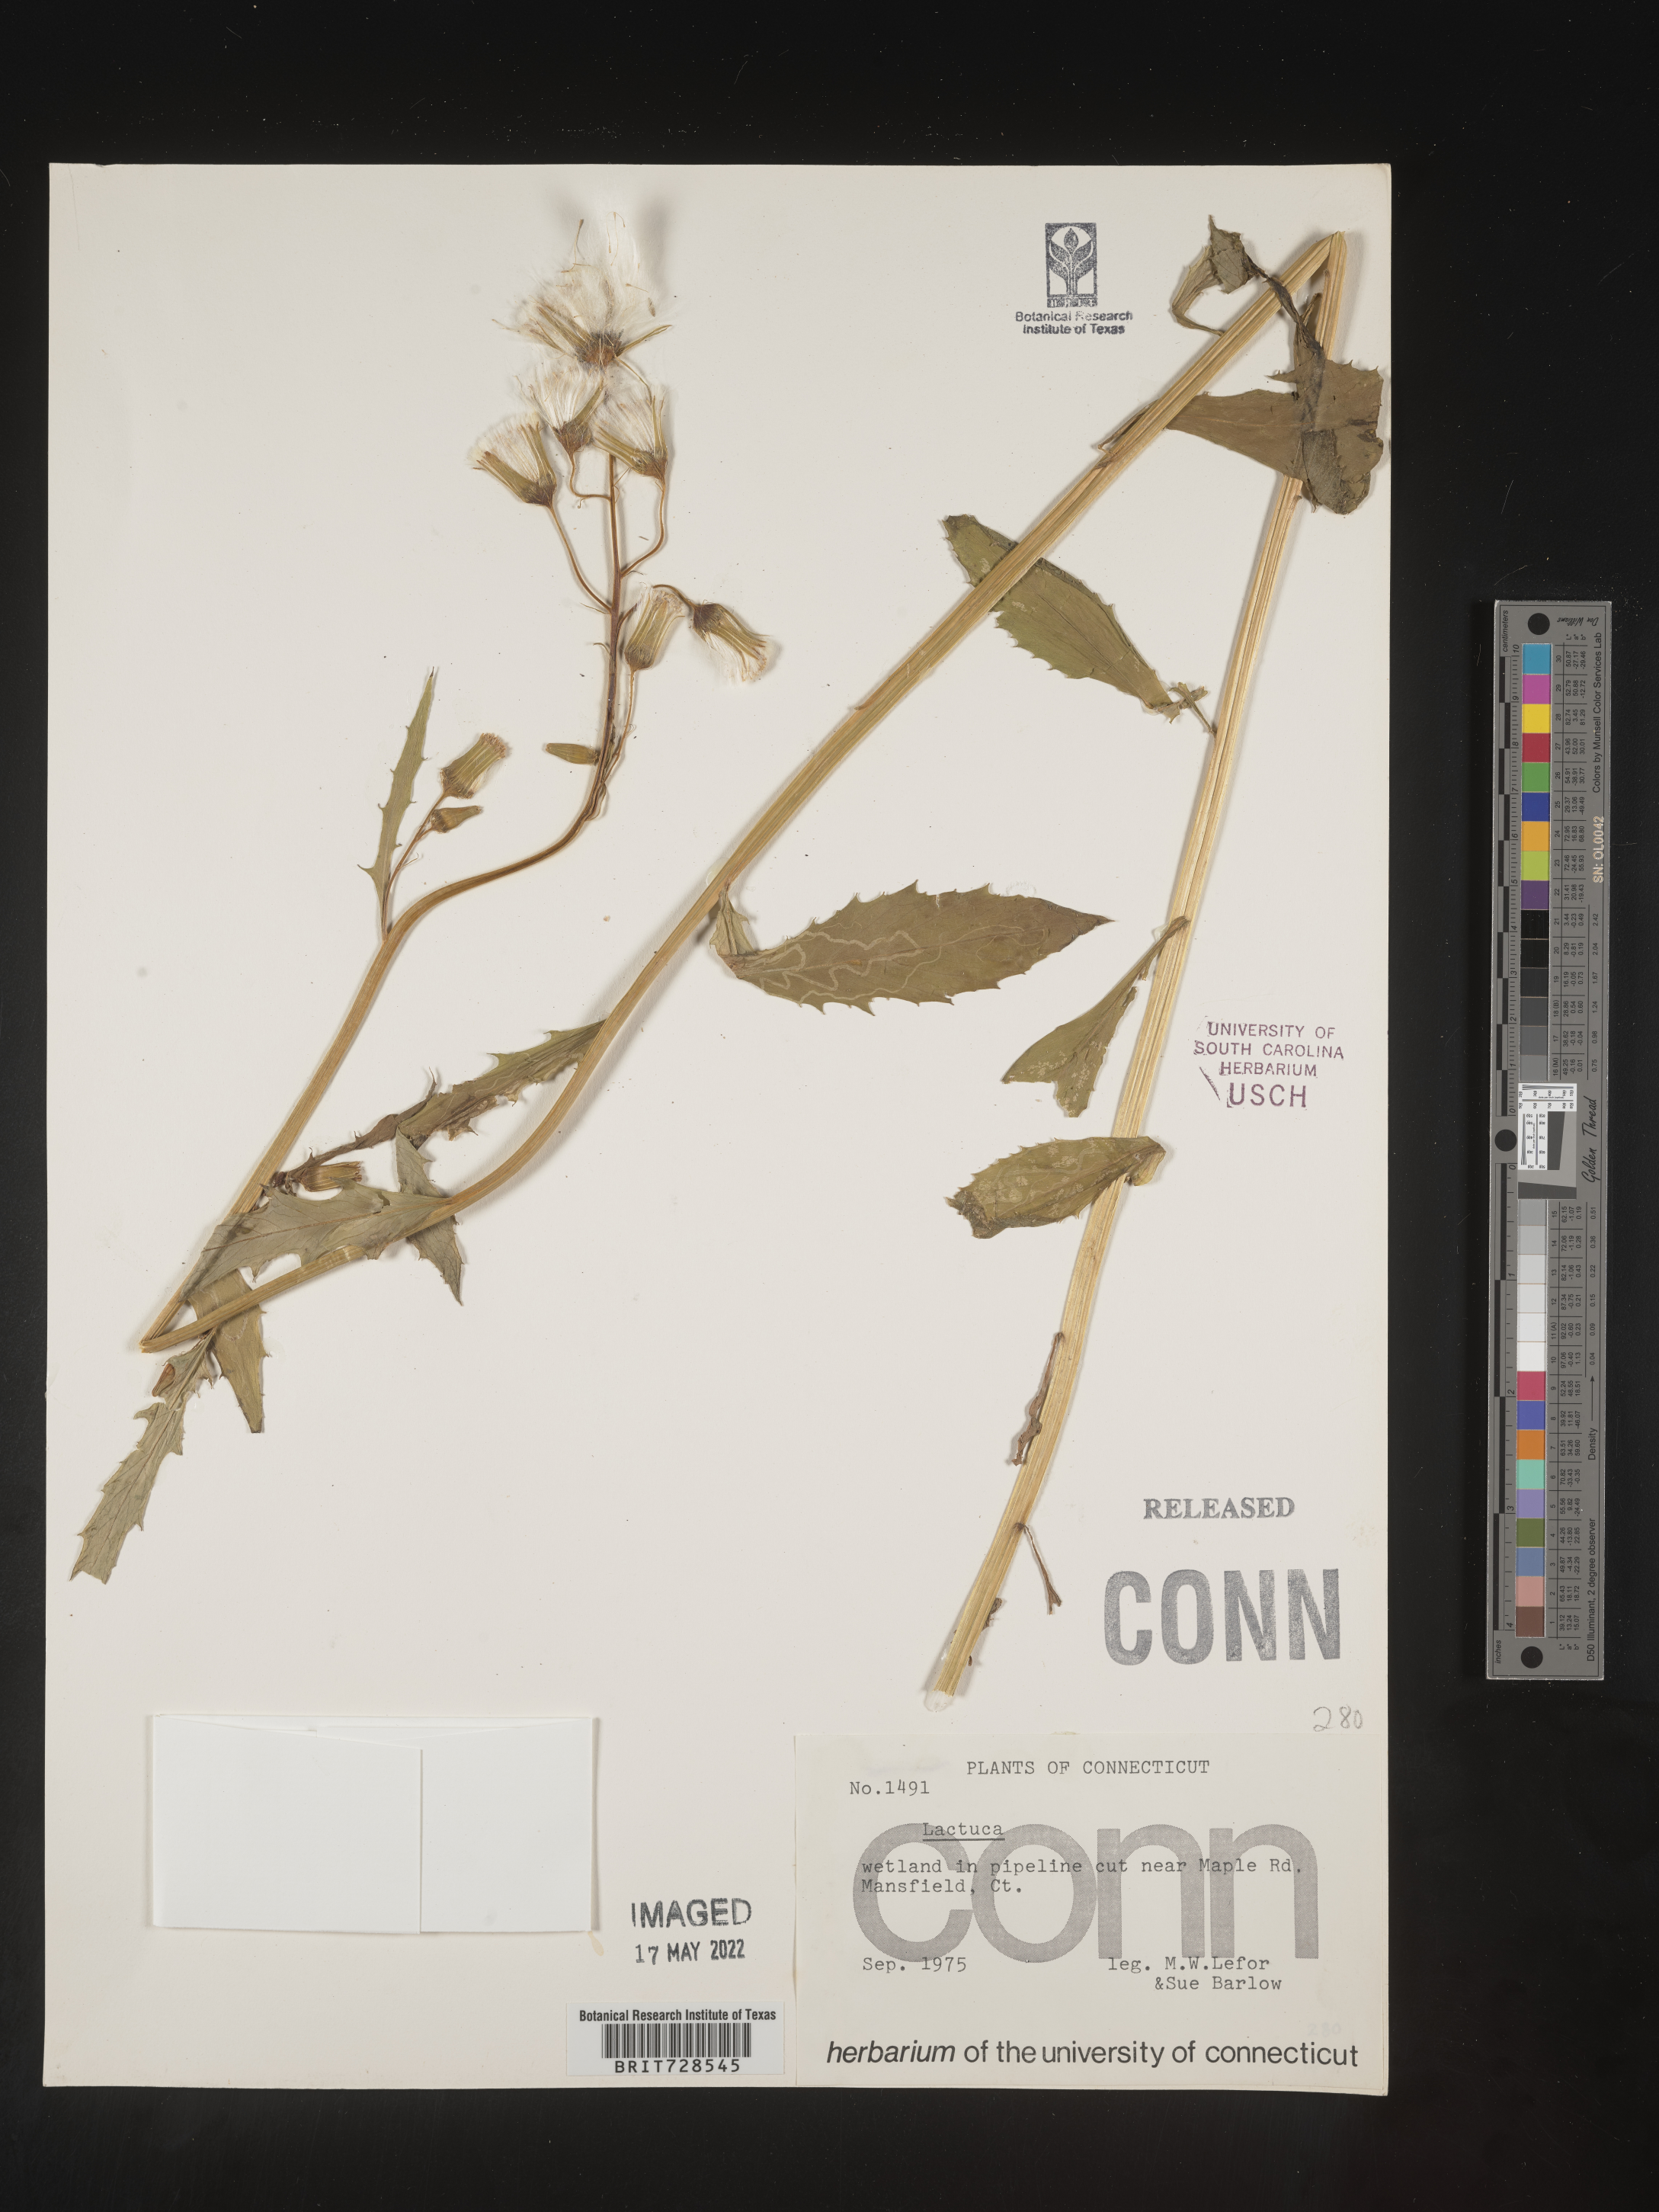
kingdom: Plantae
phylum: Tracheophyta
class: Magnoliopsida
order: Asterales
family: Asteraceae
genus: Lactuca
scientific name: Lactuca
